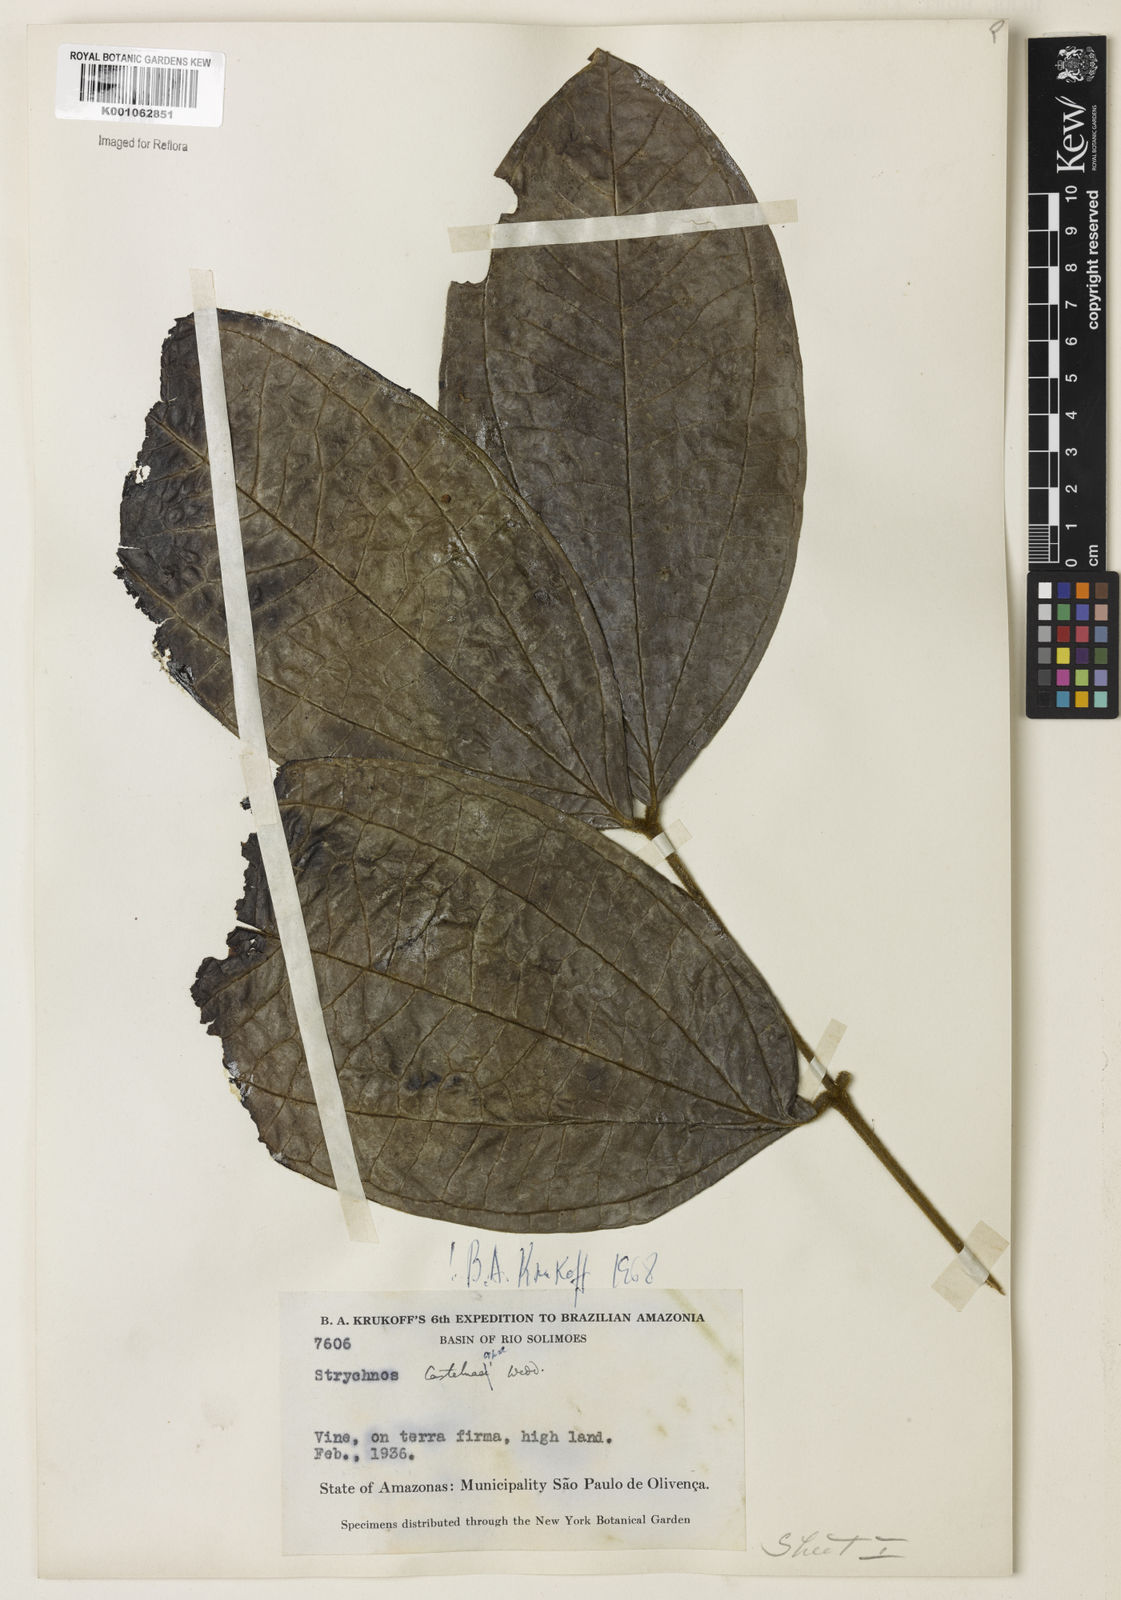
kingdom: Plantae
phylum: Tracheophyta
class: Magnoliopsida
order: Gentianales
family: Loganiaceae
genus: Strychnos
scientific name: Strychnos
